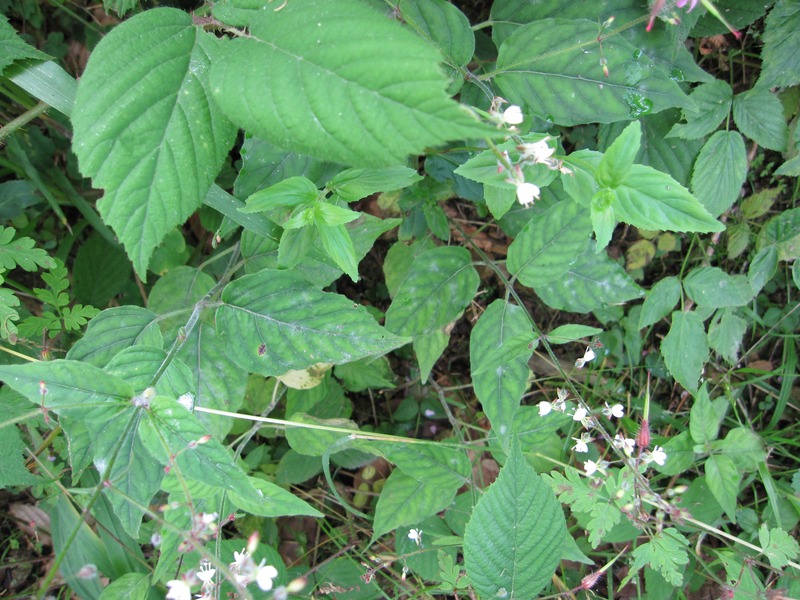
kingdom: Fungi
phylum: Ascomycota
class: Leotiomycetes
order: Helotiales
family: Erysiphaceae
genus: Erysiphe
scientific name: Erysiphe circaeae
